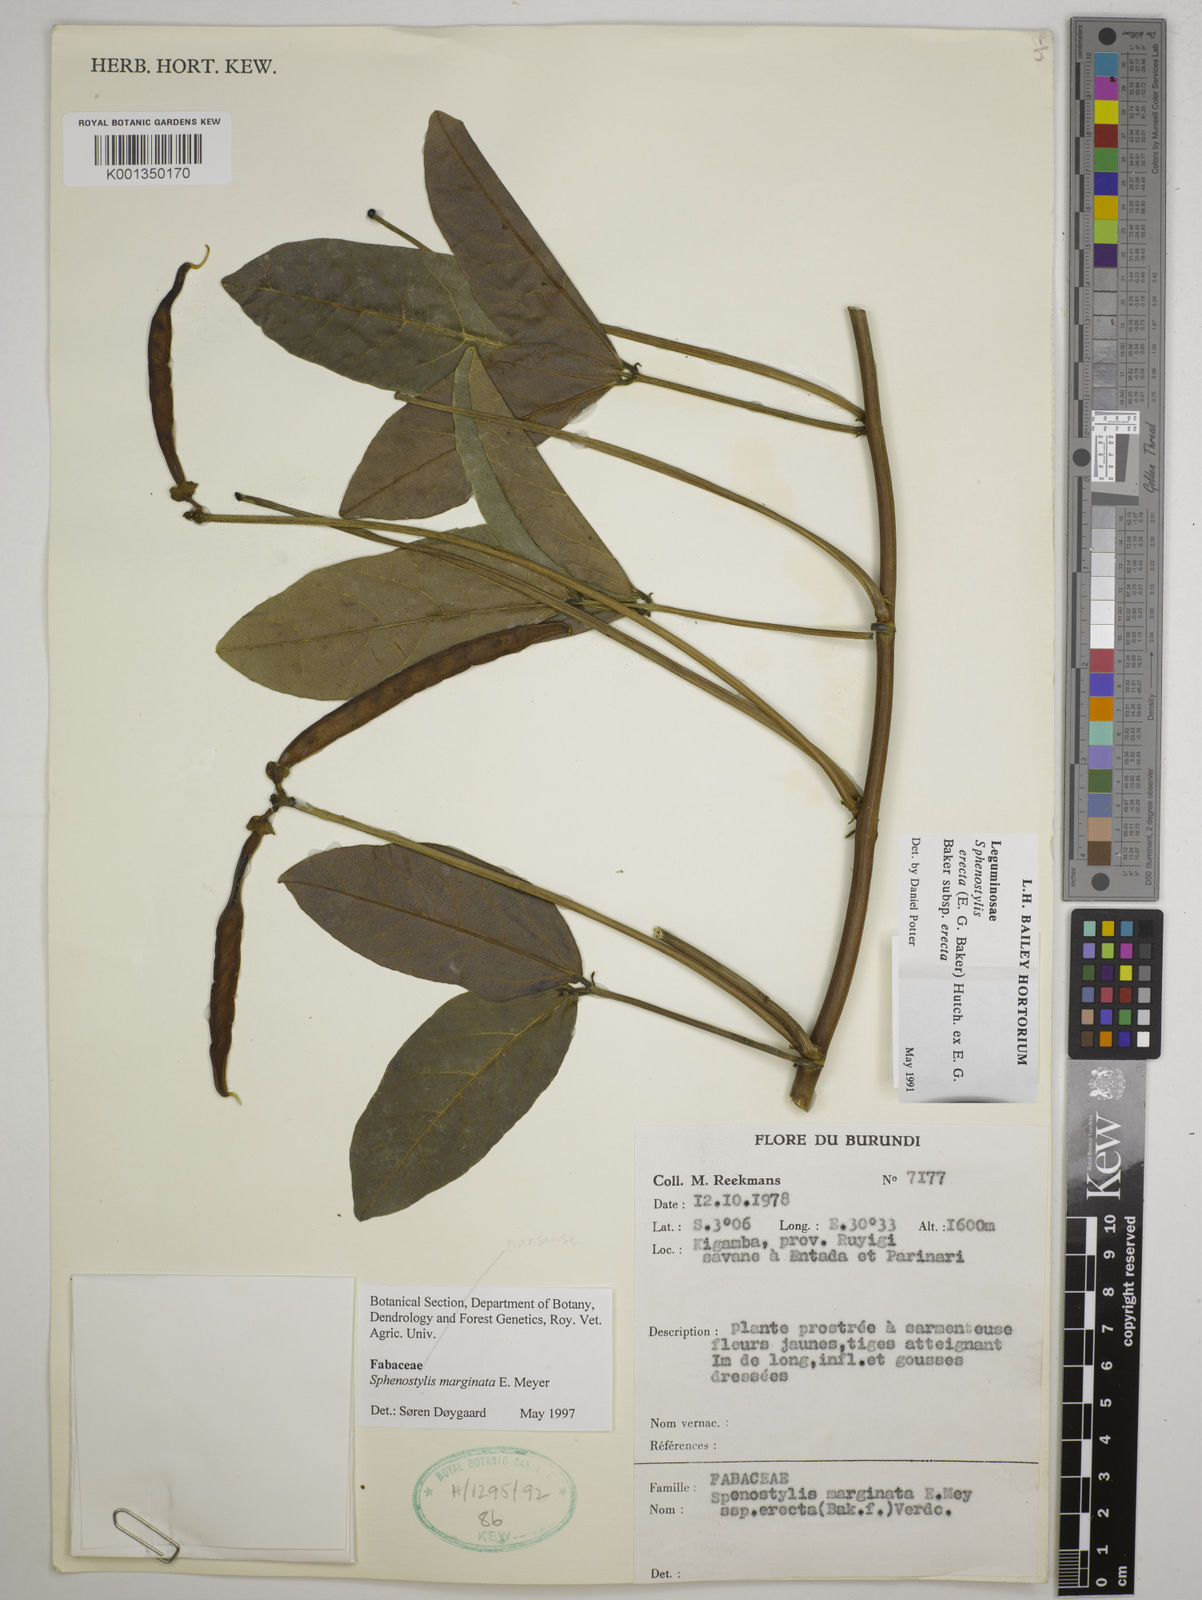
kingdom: Plantae
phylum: Tracheophyta
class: Magnoliopsida
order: Fabales
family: Fabaceae
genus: Sphenostylis
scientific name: Sphenostylis erecta
